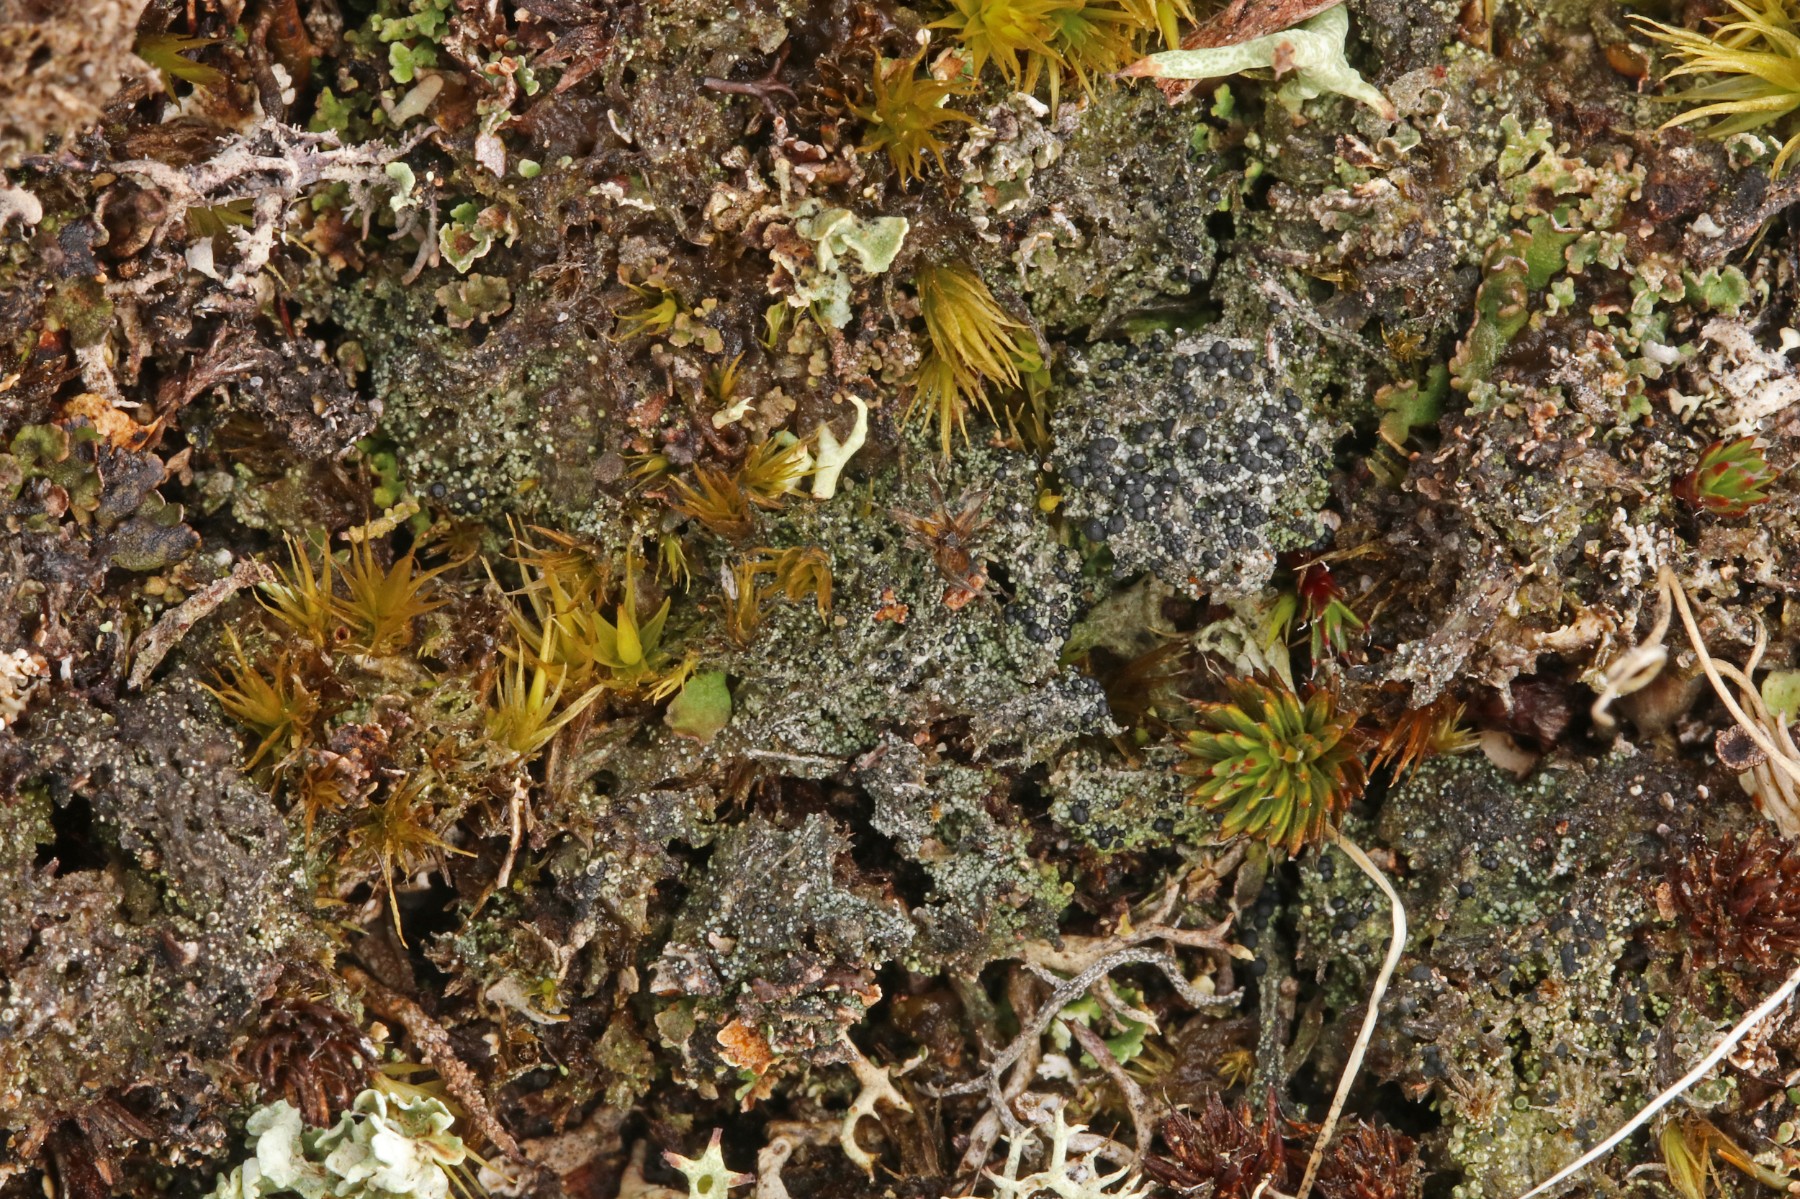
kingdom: Fungi
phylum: Ascomycota
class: Lecanoromycetes
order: Lecanorales
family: Byssolomataceae
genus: Micarea
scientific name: Micarea lignaria
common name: tørve-knaplav
